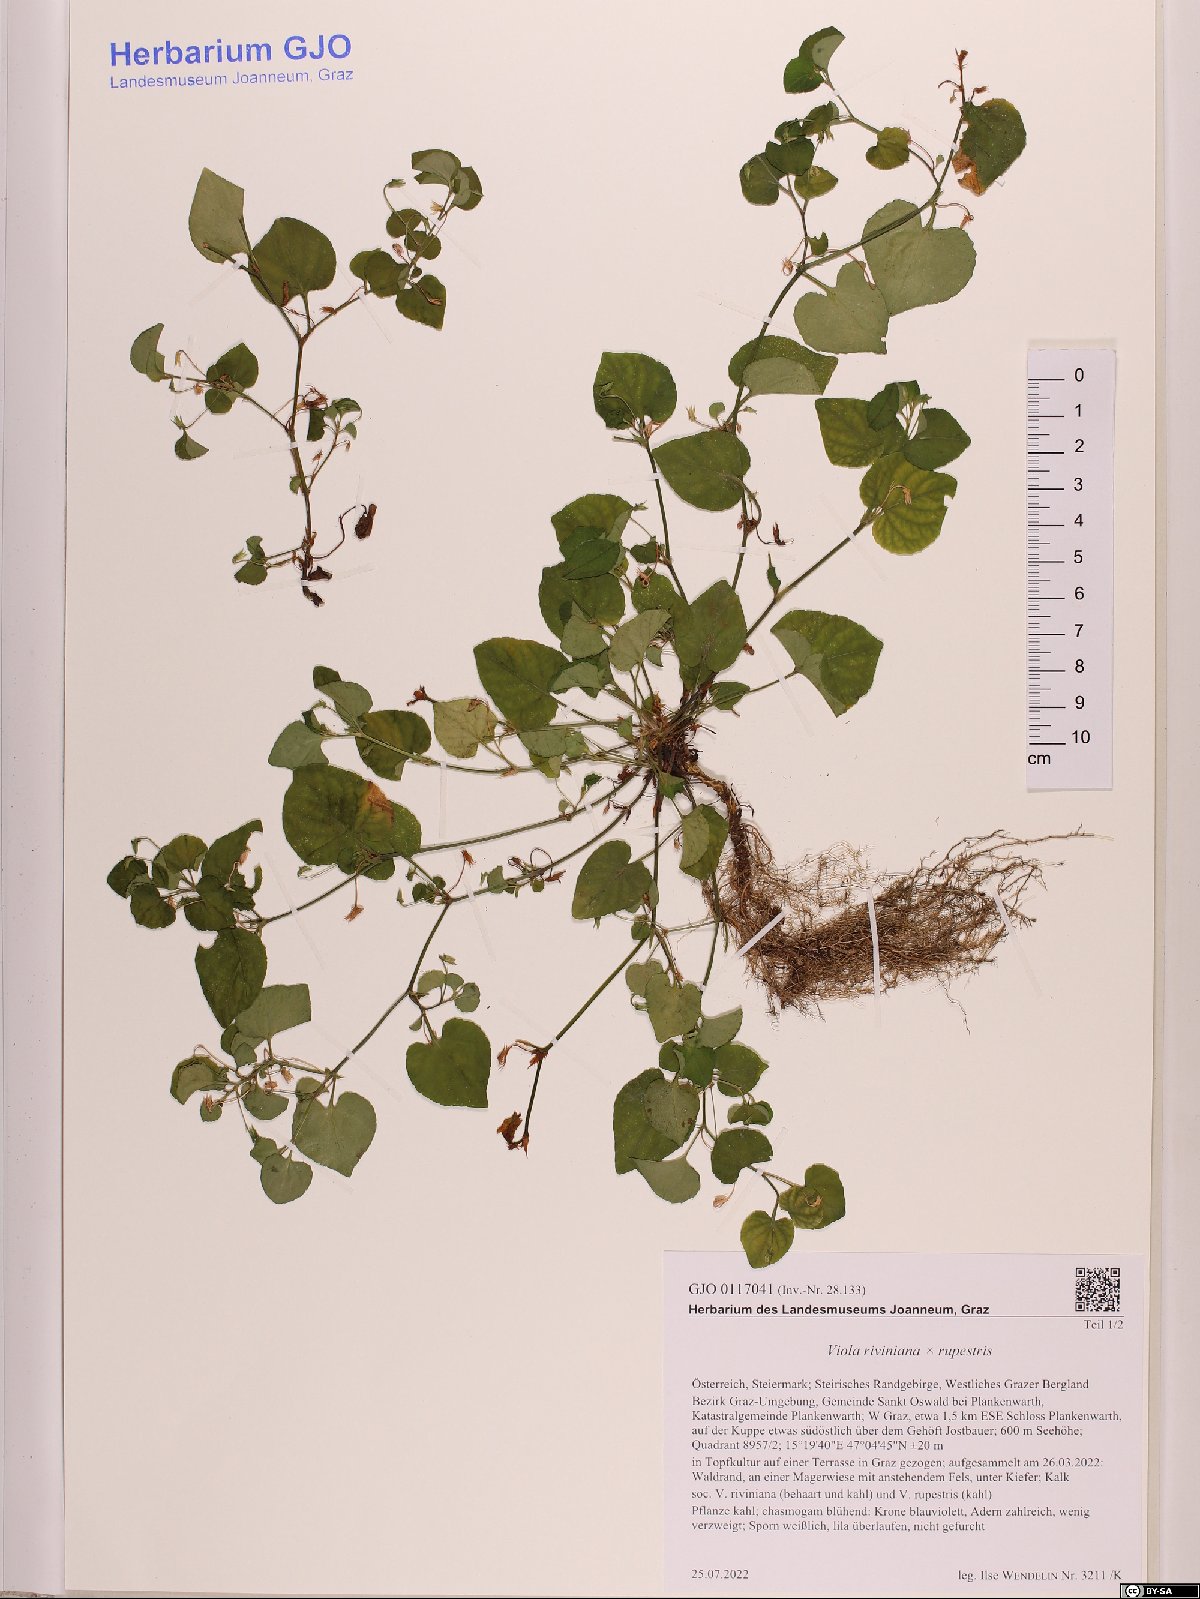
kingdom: Plantae
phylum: Tracheophyta
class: Magnoliopsida
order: Malpighiales
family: Violaceae
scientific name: Violaceae
